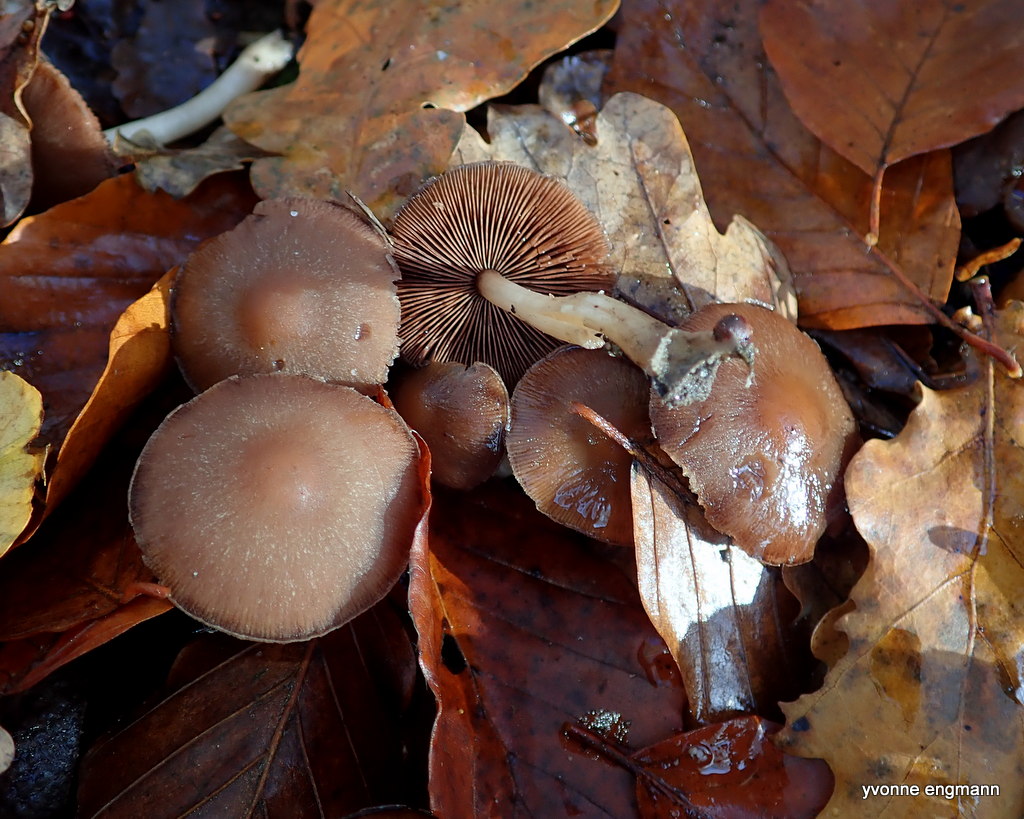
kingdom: Fungi
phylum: Basidiomycota
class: Agaricomycetes
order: Agaricales
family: Psathyrellaceae
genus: Psathyrella
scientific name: Psathyrella piluliformis
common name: lysstokket mørkhat
